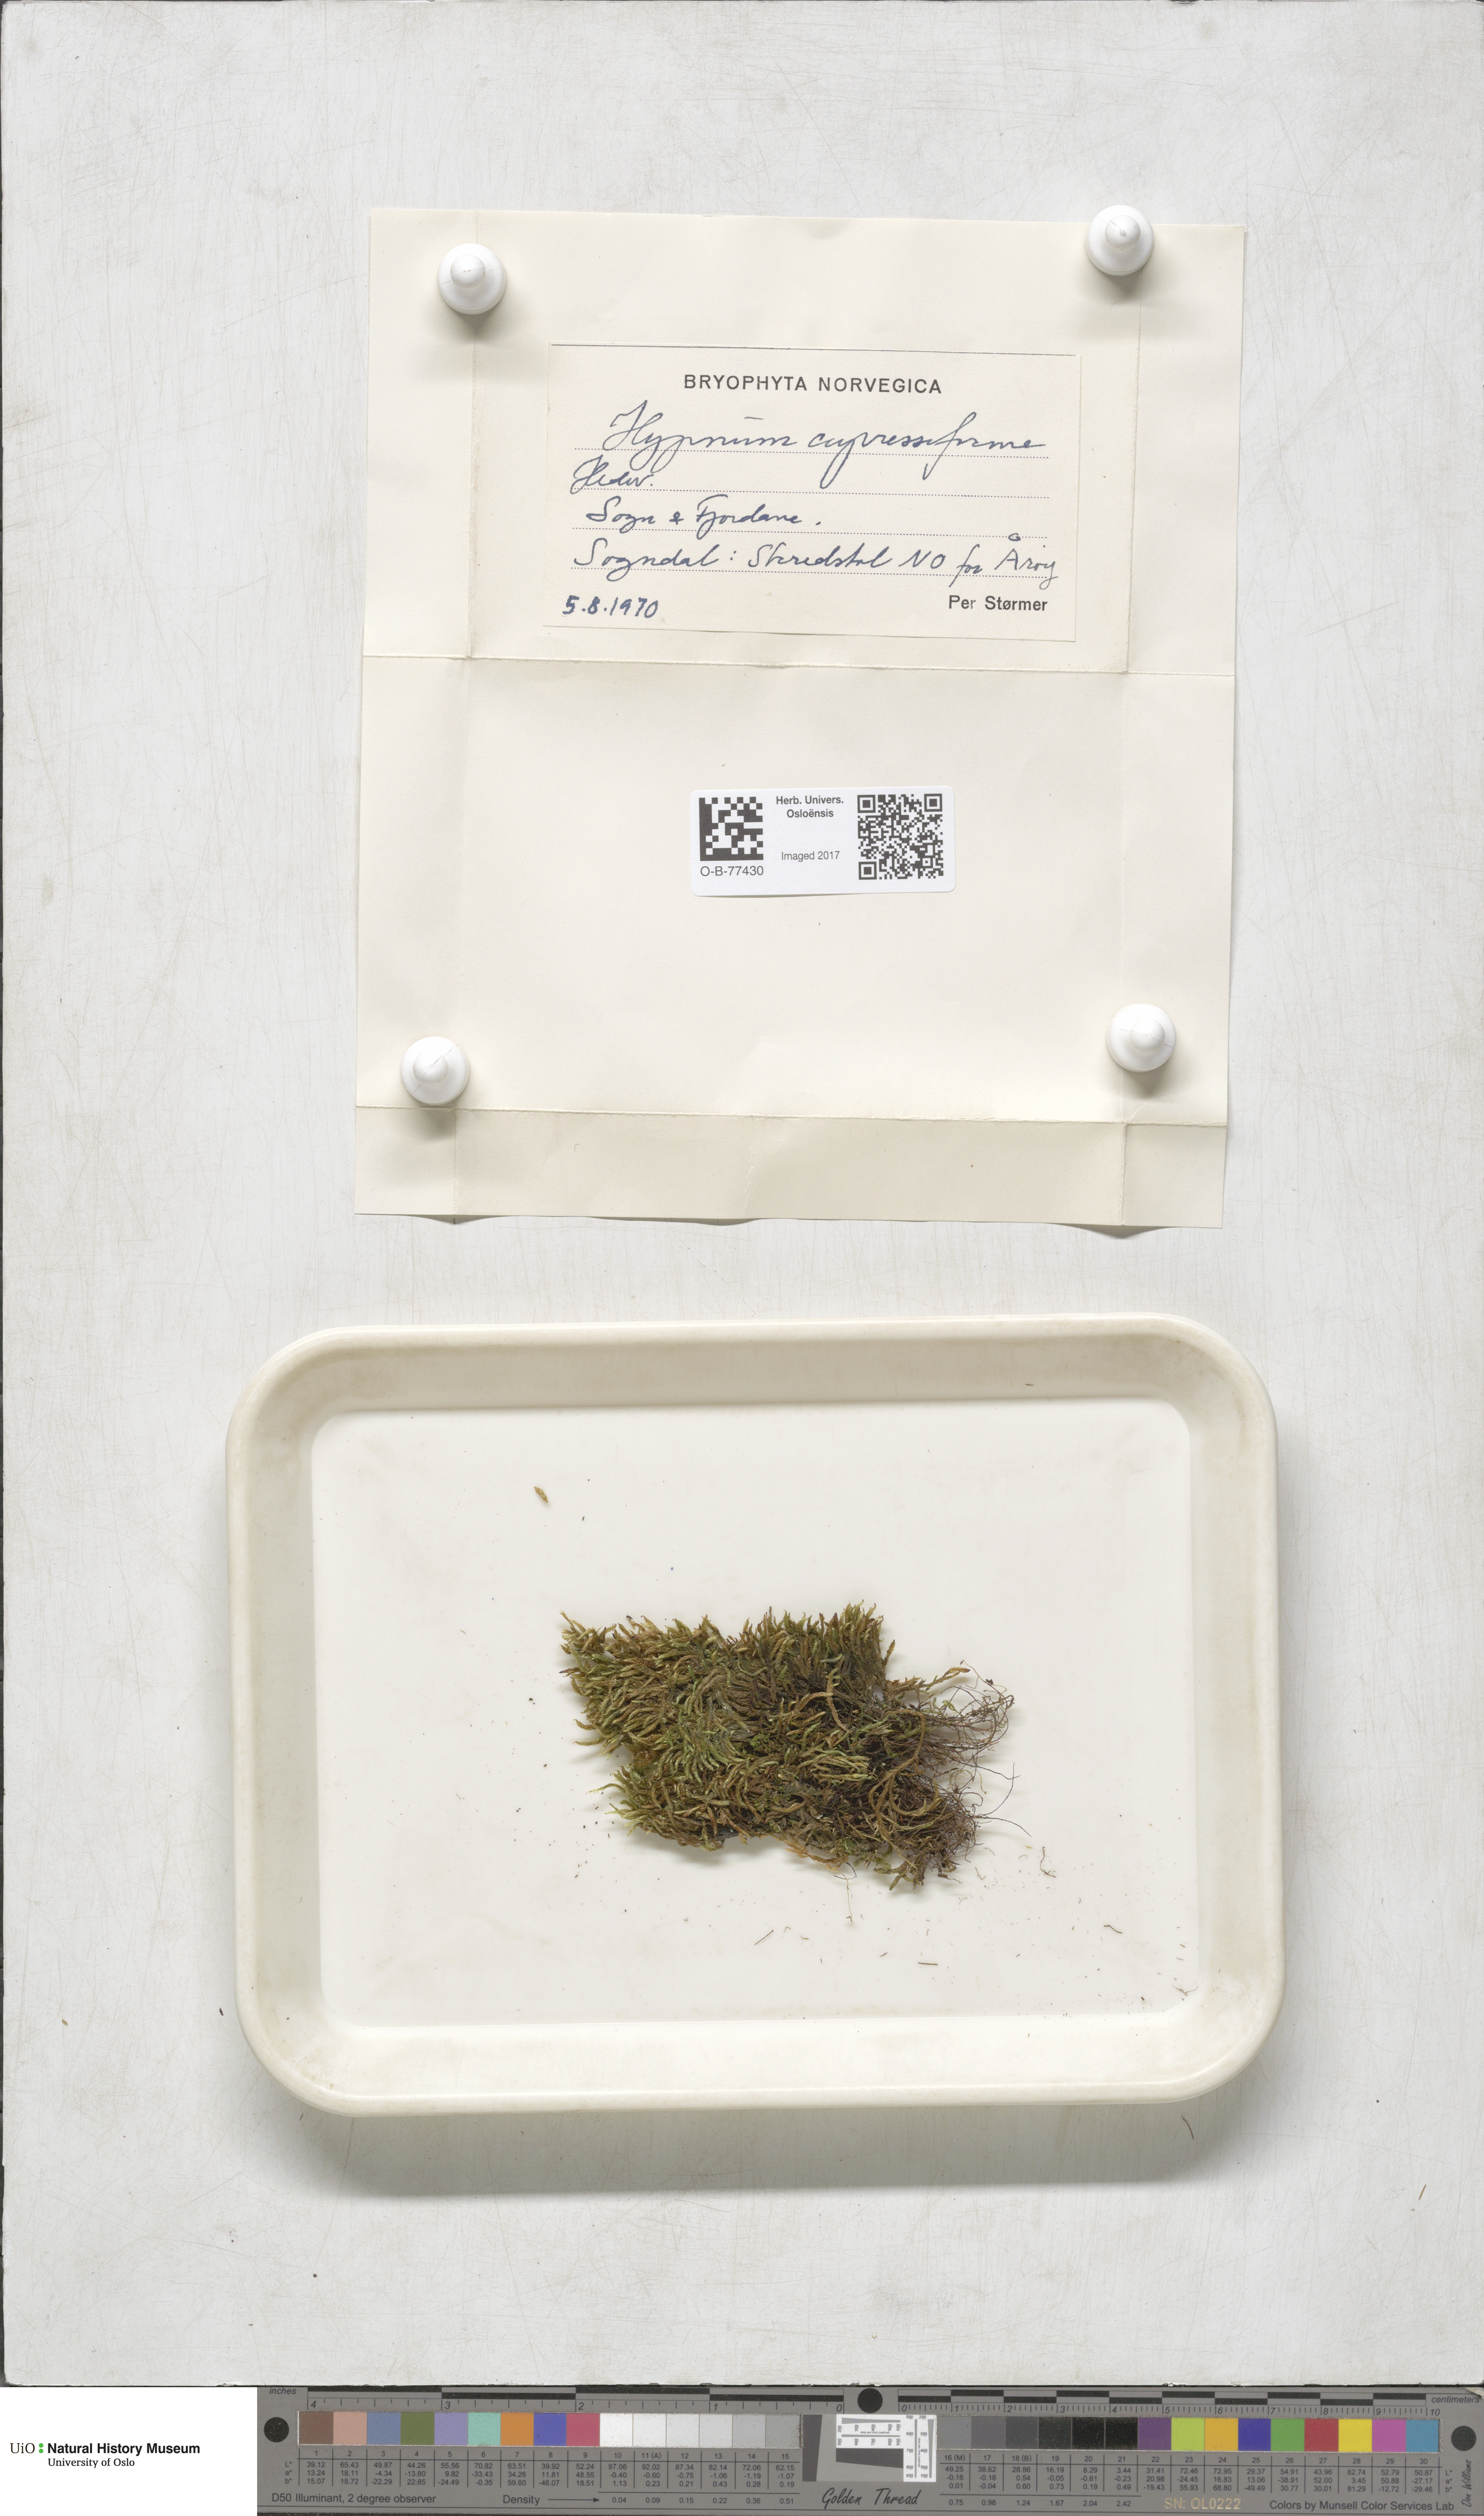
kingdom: Plantae
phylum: Bryophyta
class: Bryopsida
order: Hypnales
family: Hypnaceae
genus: Hypnum
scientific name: Hypnum cupressiforme
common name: Cypress-leaved plait-moss
